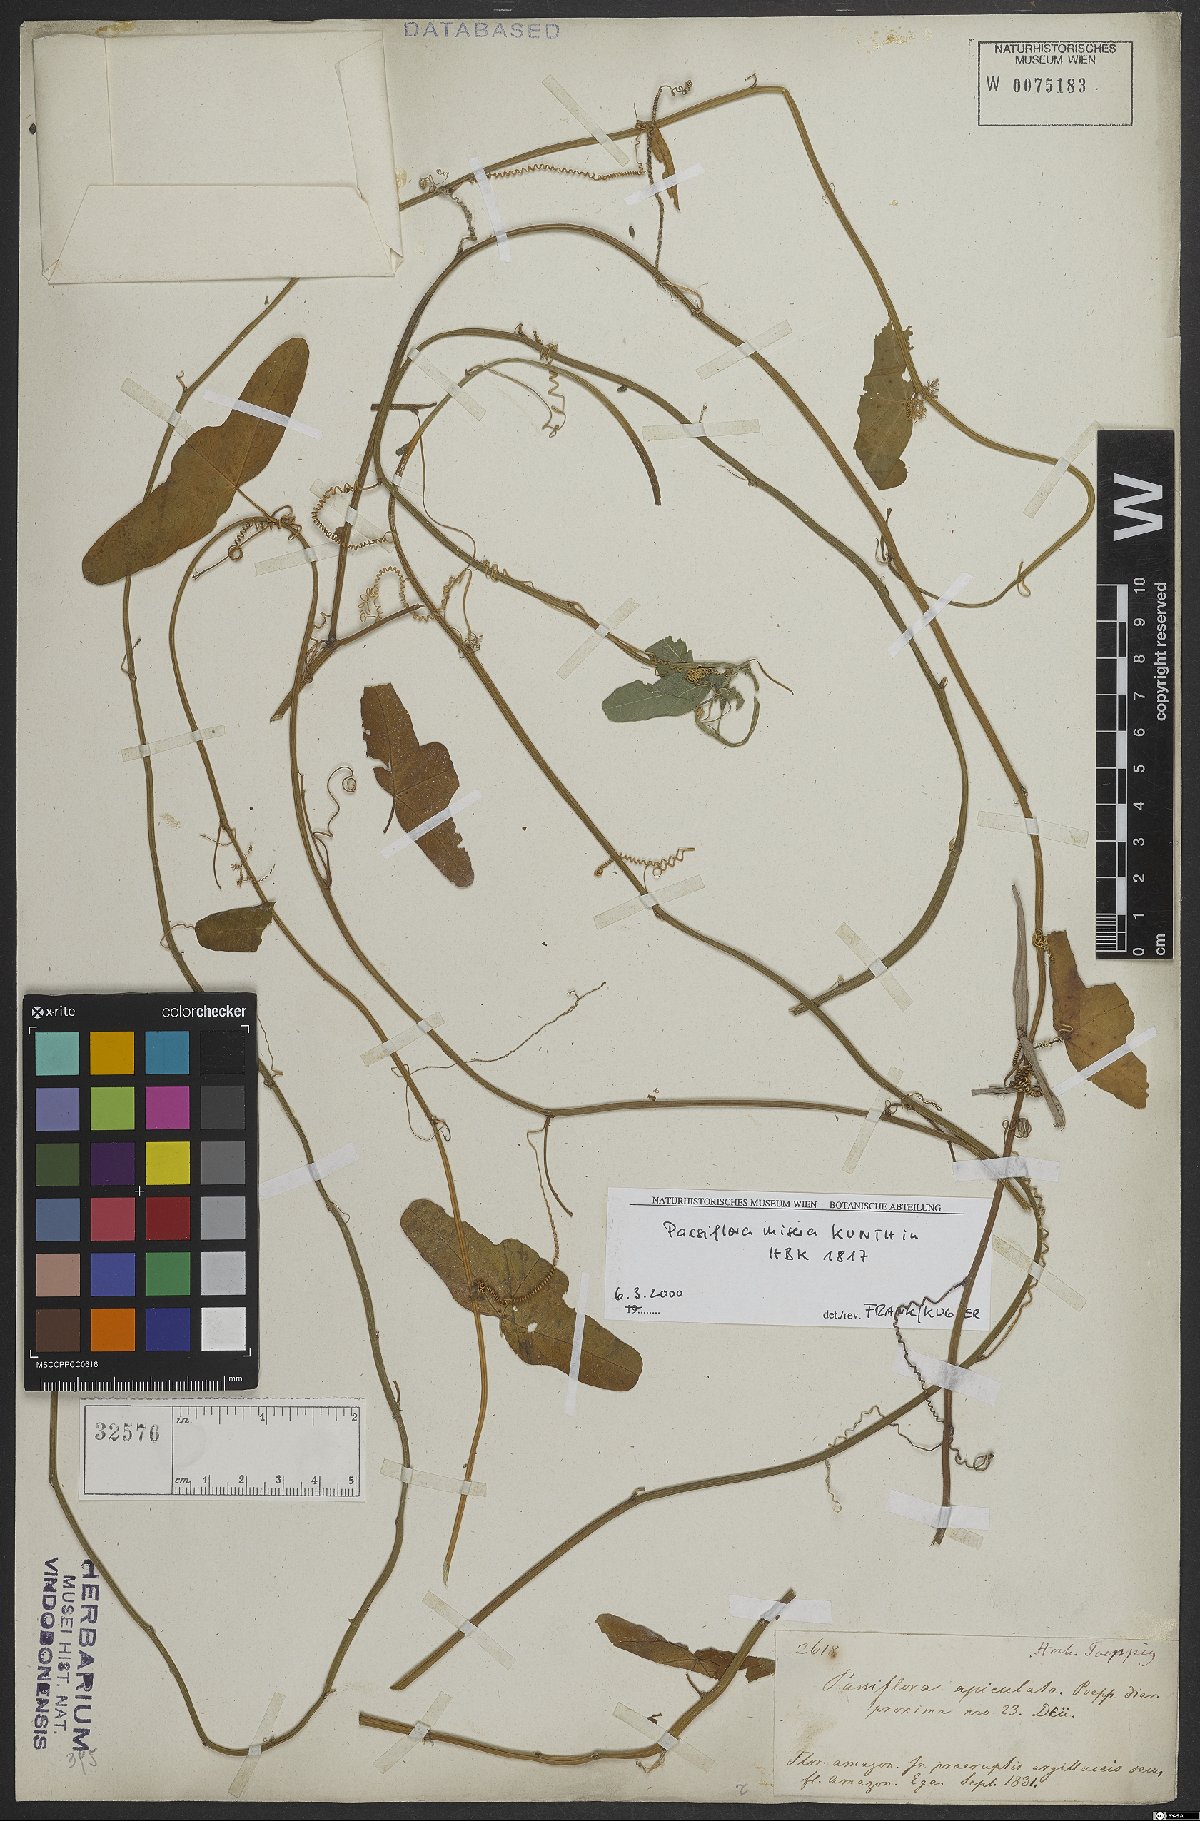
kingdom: Plantae
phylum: Tracheophyta
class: Magnoliopsida
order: Malpighiales
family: Passifloraceae
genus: Passiflora
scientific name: Passiflora misera
